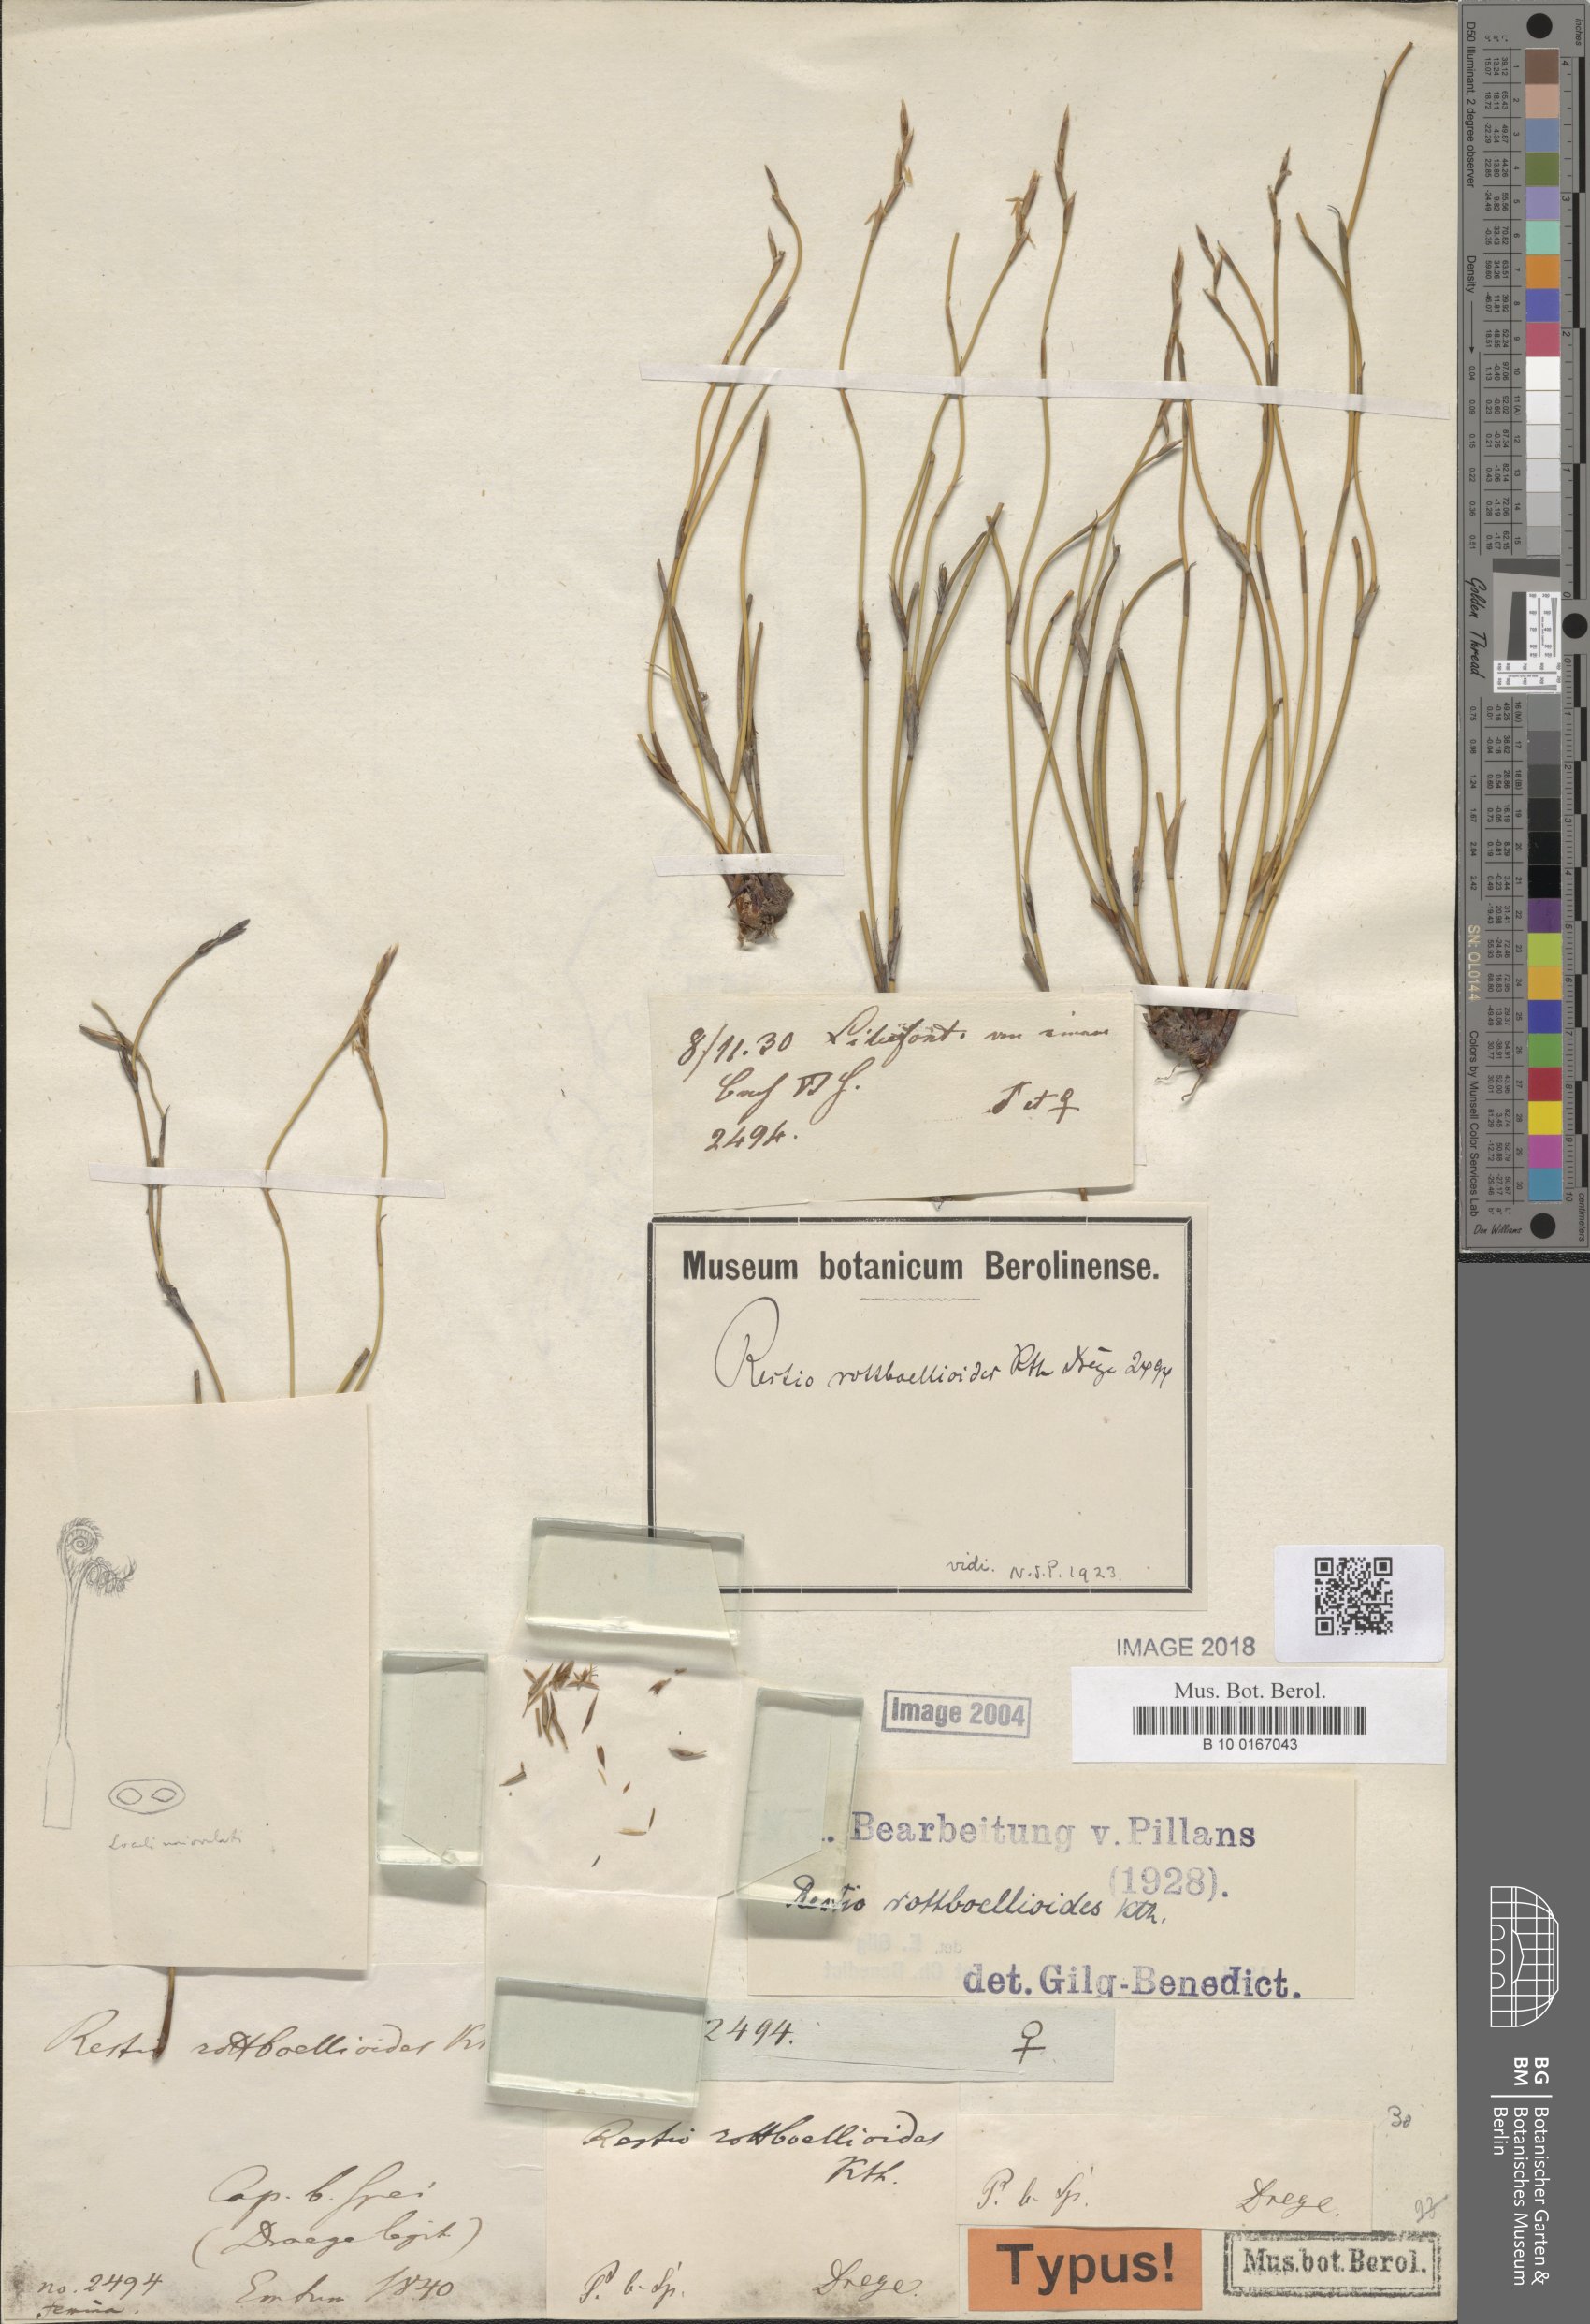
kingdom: Plantae
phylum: Tracheophyta
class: Liliopsida
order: Poales
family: Restionaceae
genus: Restio
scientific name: Restio rottboellioides
